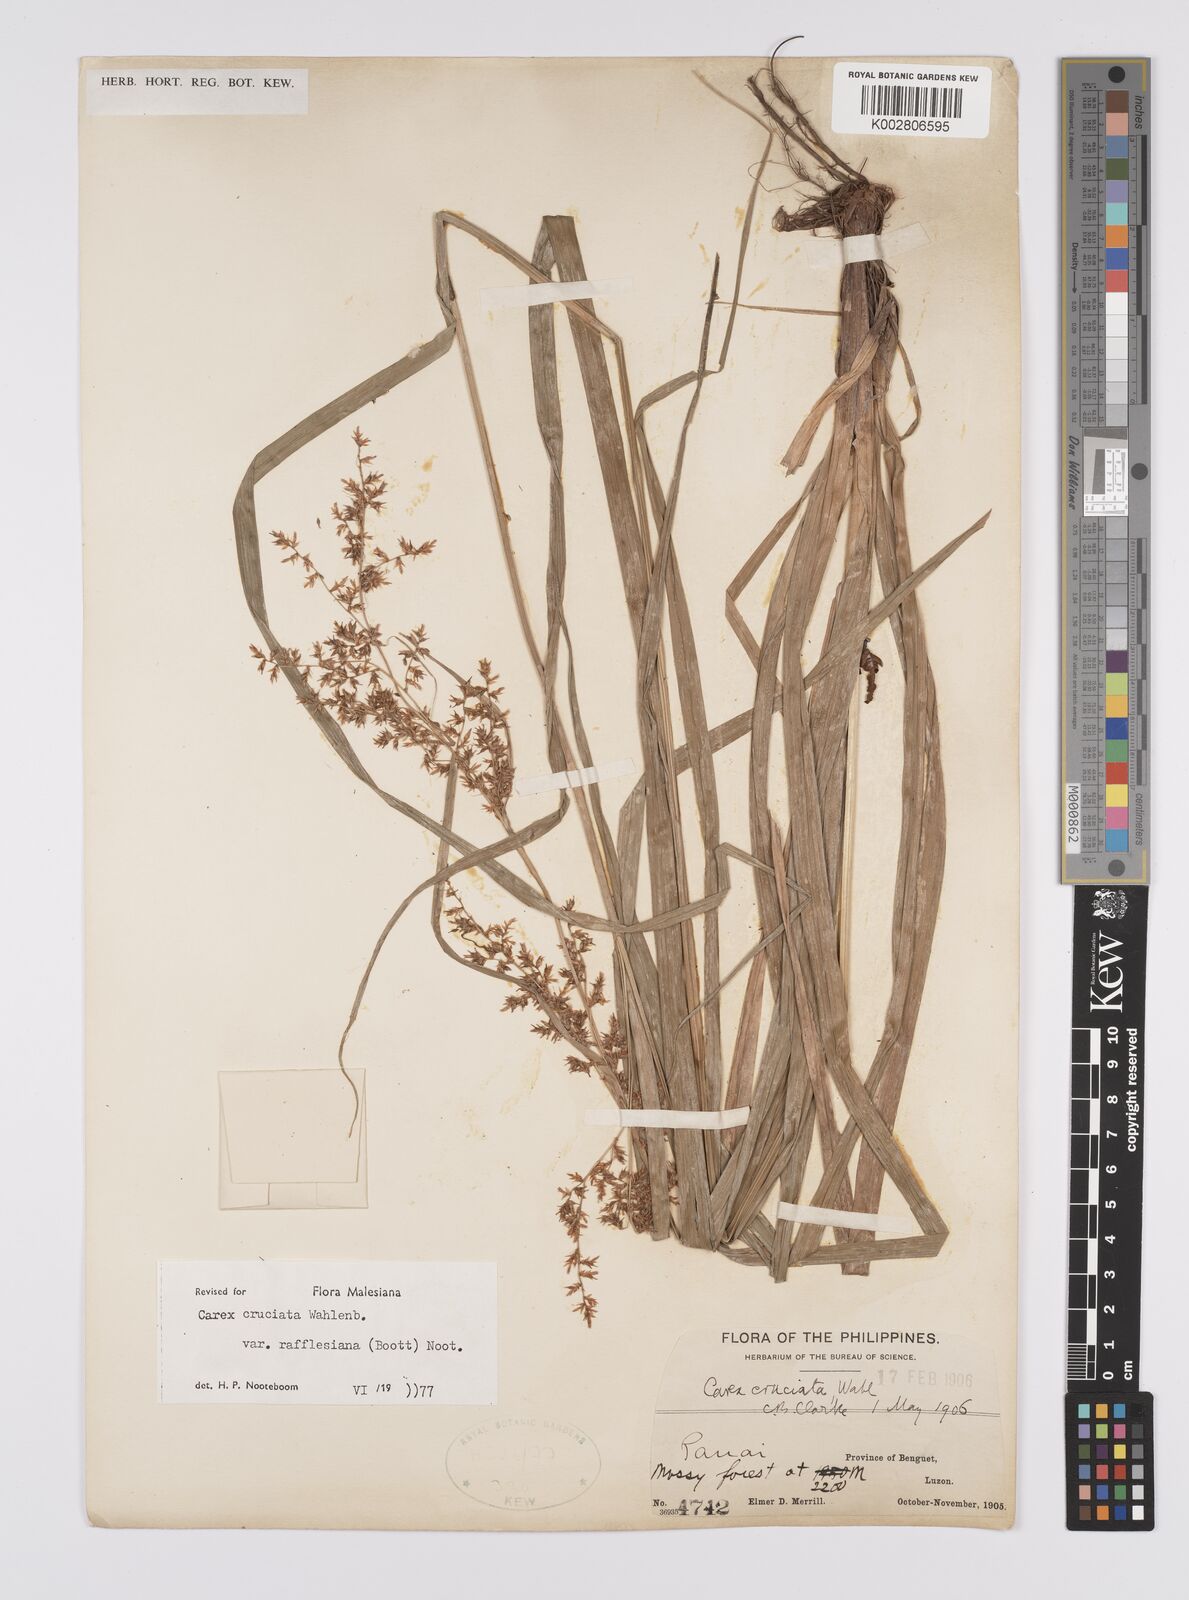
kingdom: Plantae
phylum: Tracheophyta
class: Liliopsida
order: Poales
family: Cyperaceae
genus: Carex
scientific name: Carex rafflesiana
